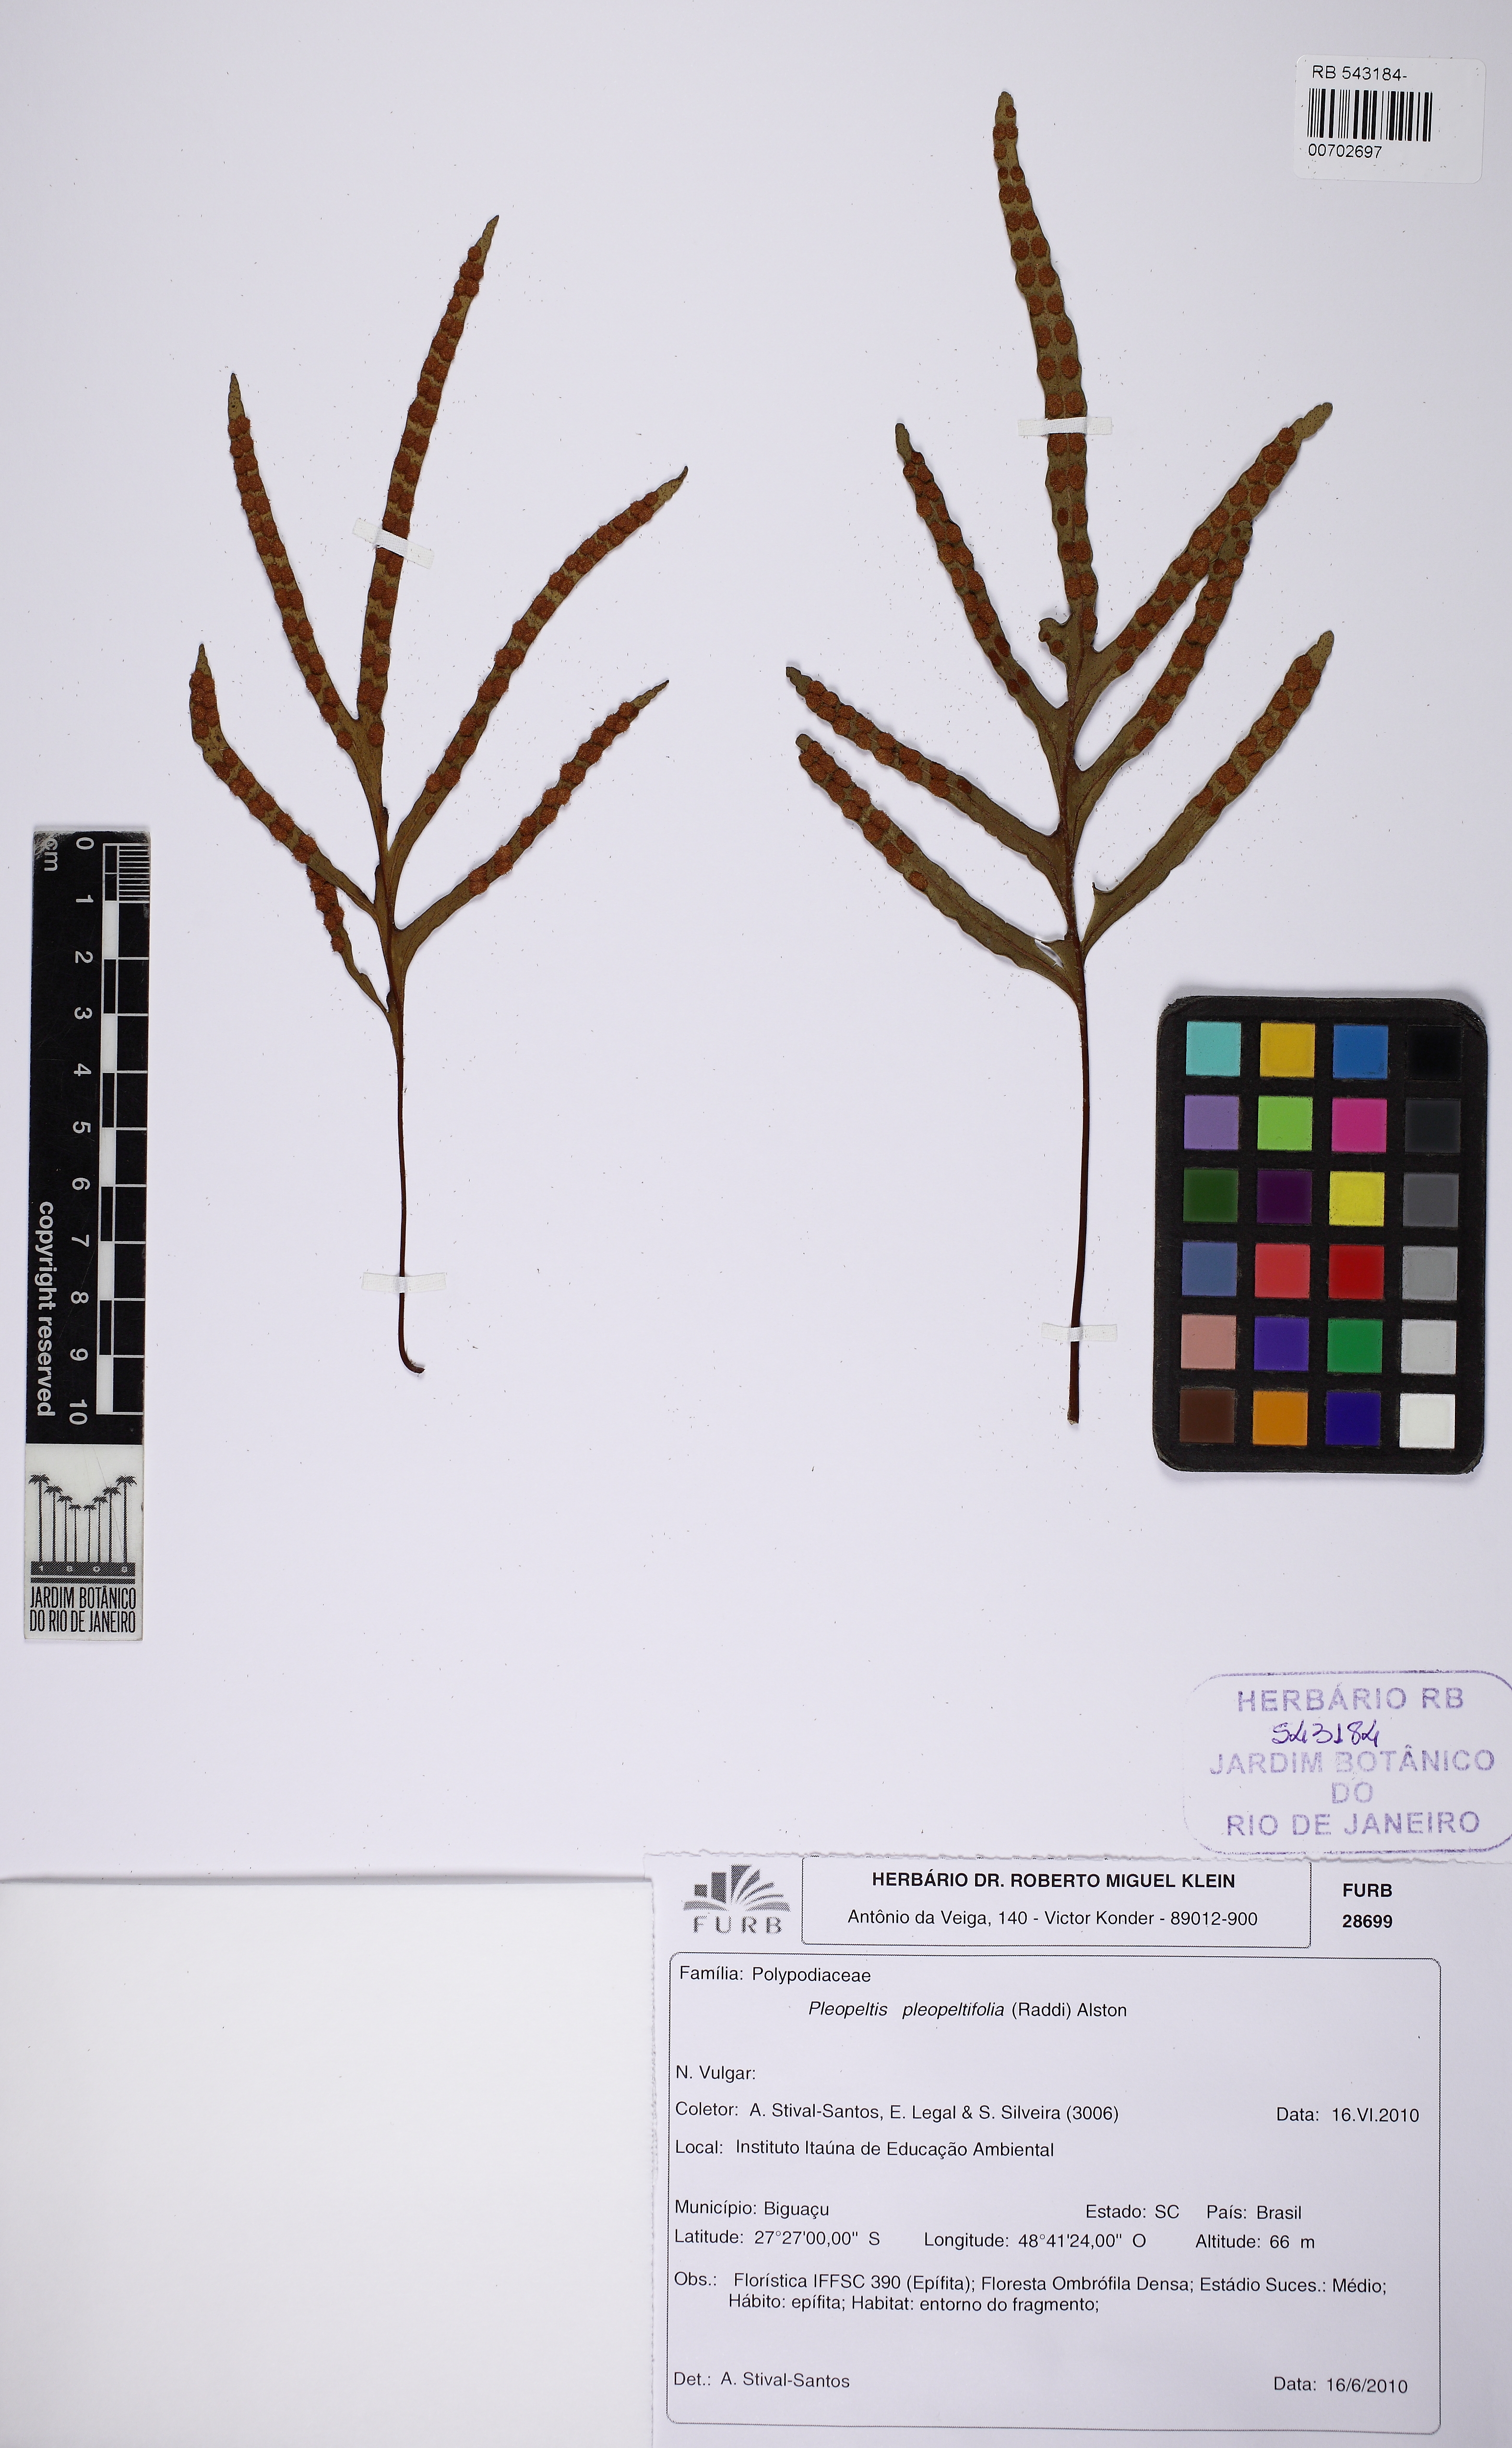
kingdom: Plantae
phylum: Tracheophyta
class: Polypodiopsida
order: Polypodiales
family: Polypodiaceae
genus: Pleopeltis
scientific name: Pleopeltis pleopeltifolia
